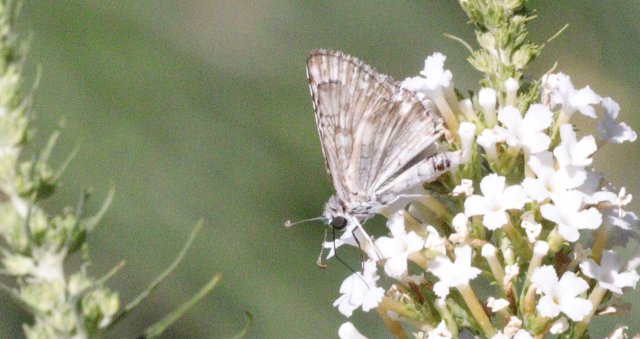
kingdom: Animalia
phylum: Arthropoda
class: Insecta
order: Lepidoptera
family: Hesperiidae
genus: Heliopetes
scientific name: Heliopetes ericetorum
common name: Northern White-Skipper
